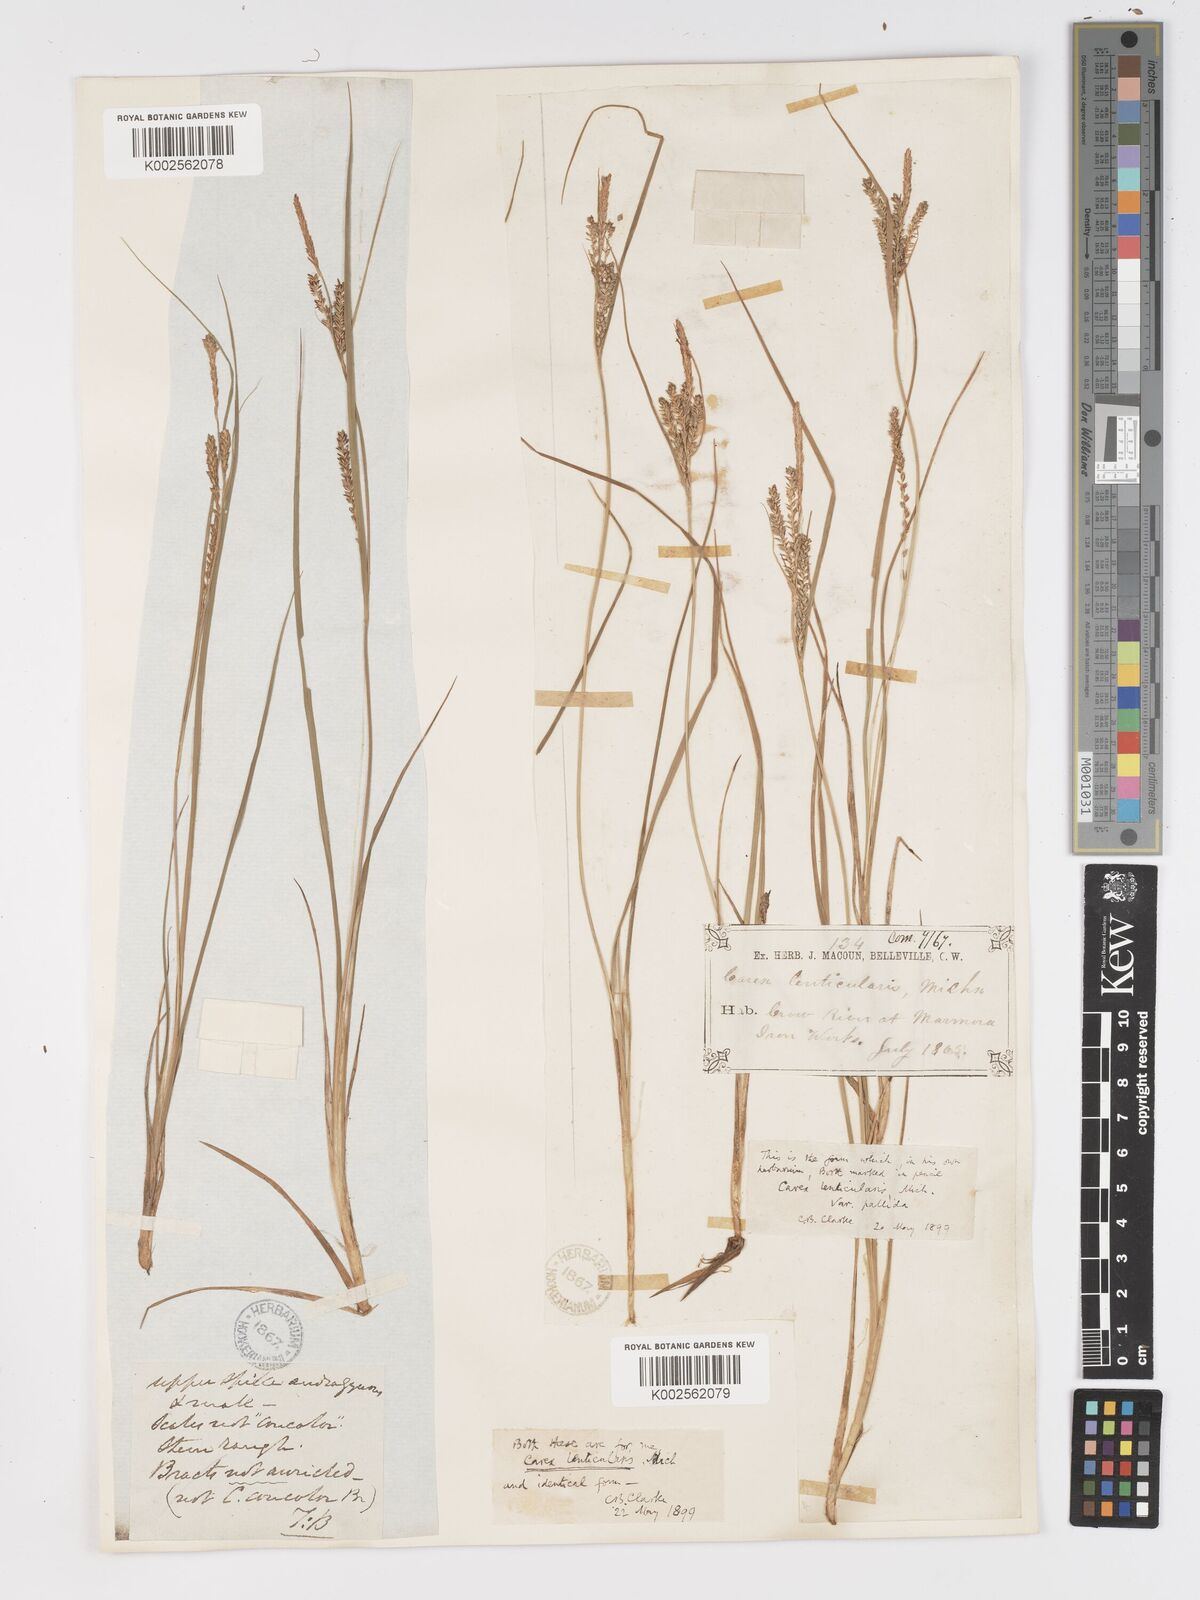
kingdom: Plantae
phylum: Tracheophyta
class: Liliopsida
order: Poales
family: Cyperaceae
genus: Carex
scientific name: Carex lenticularis
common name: Lakeshore sedge
